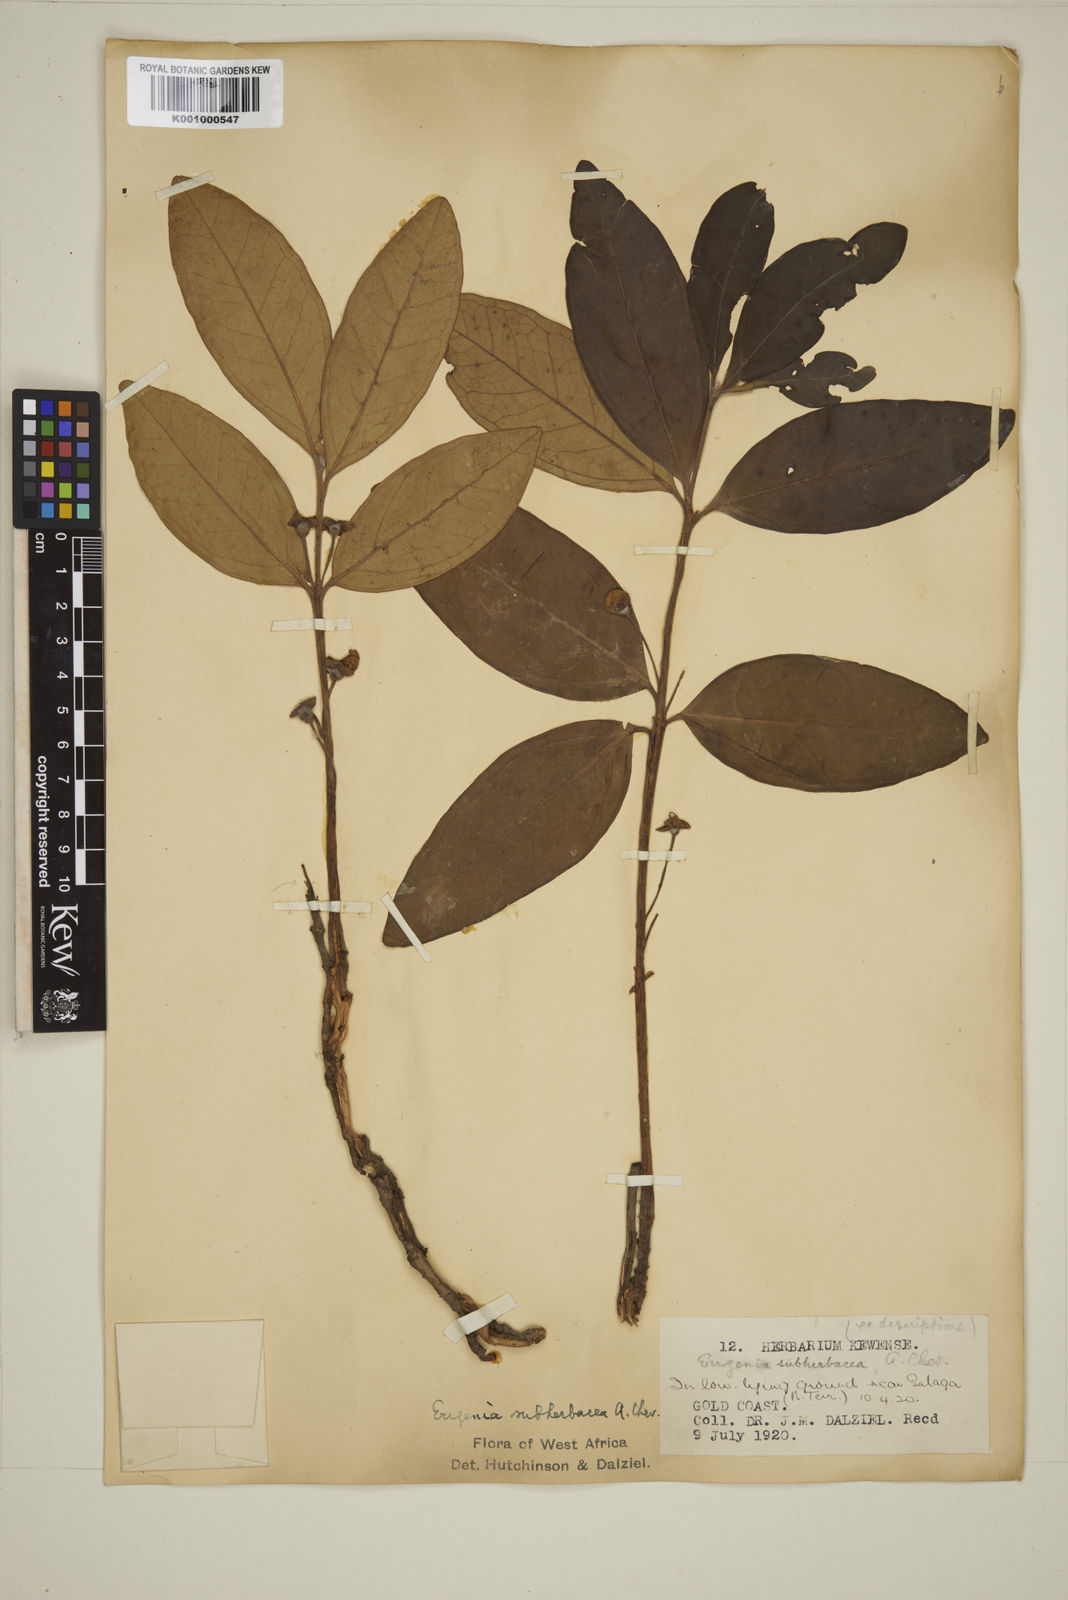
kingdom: Plantae
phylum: Tracheophyta
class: Magnoliopsida
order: Myrtales
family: Myrtaceae
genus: Eugenia
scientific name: Eugenia subherbacea
